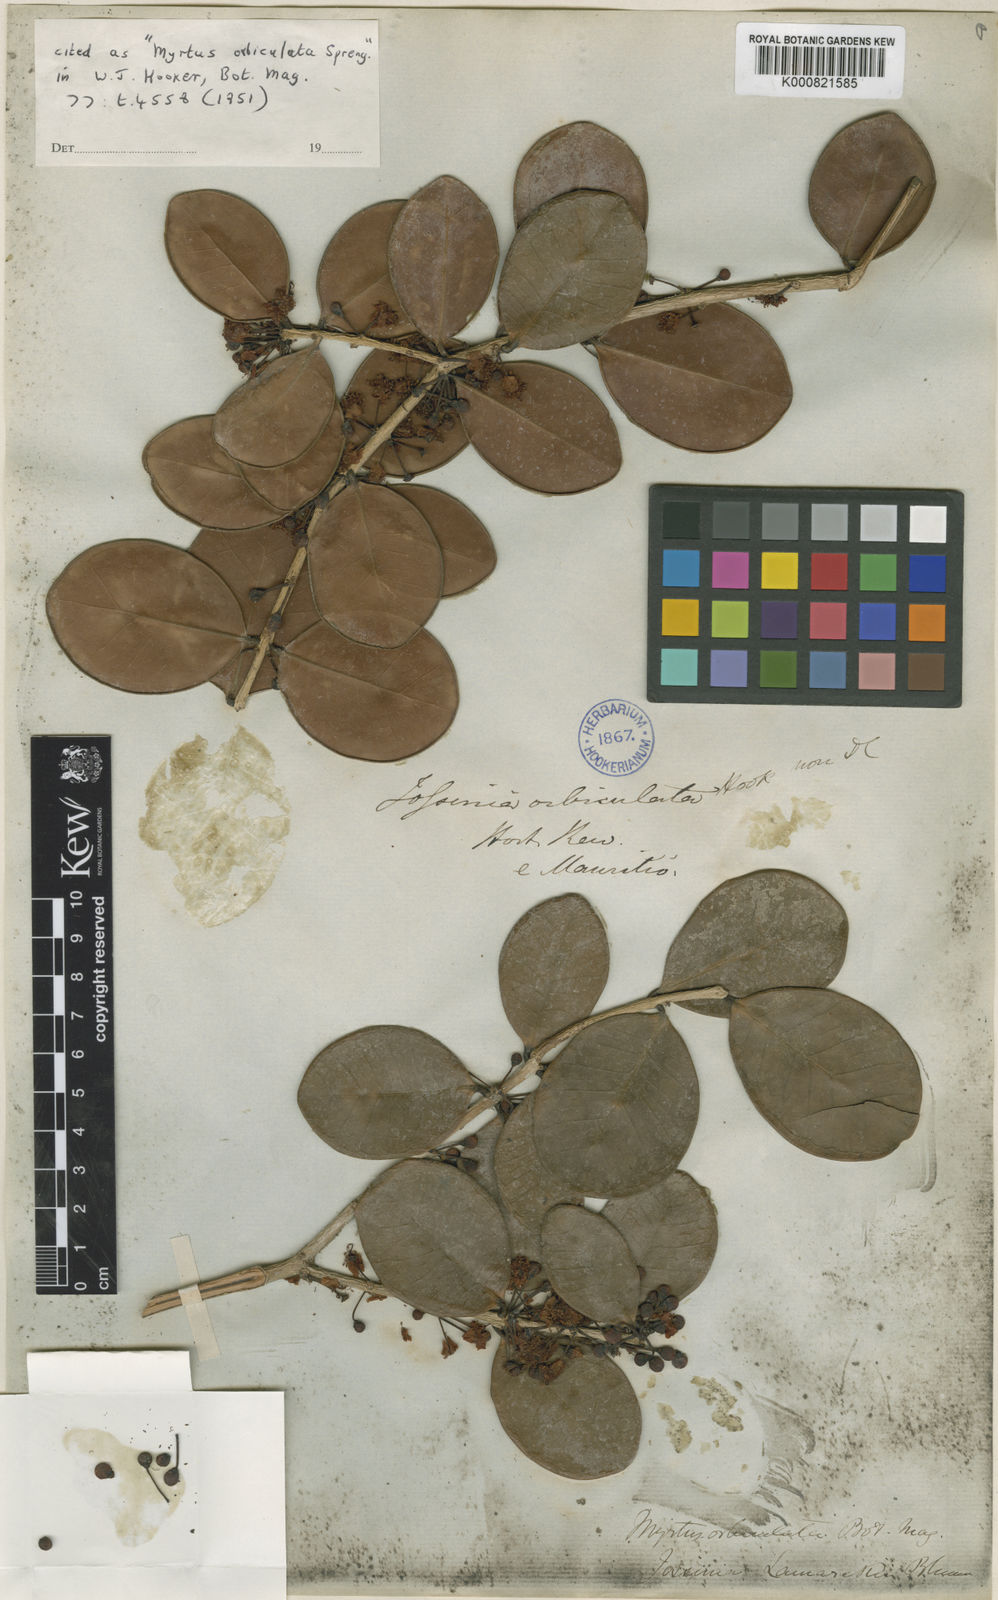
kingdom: Plantae
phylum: Tracheophyta
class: Magnoliopsida
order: Myrtales
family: Myrtaceae
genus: Eugenia
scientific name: Eugenia uniflora
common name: Surinam cherry
